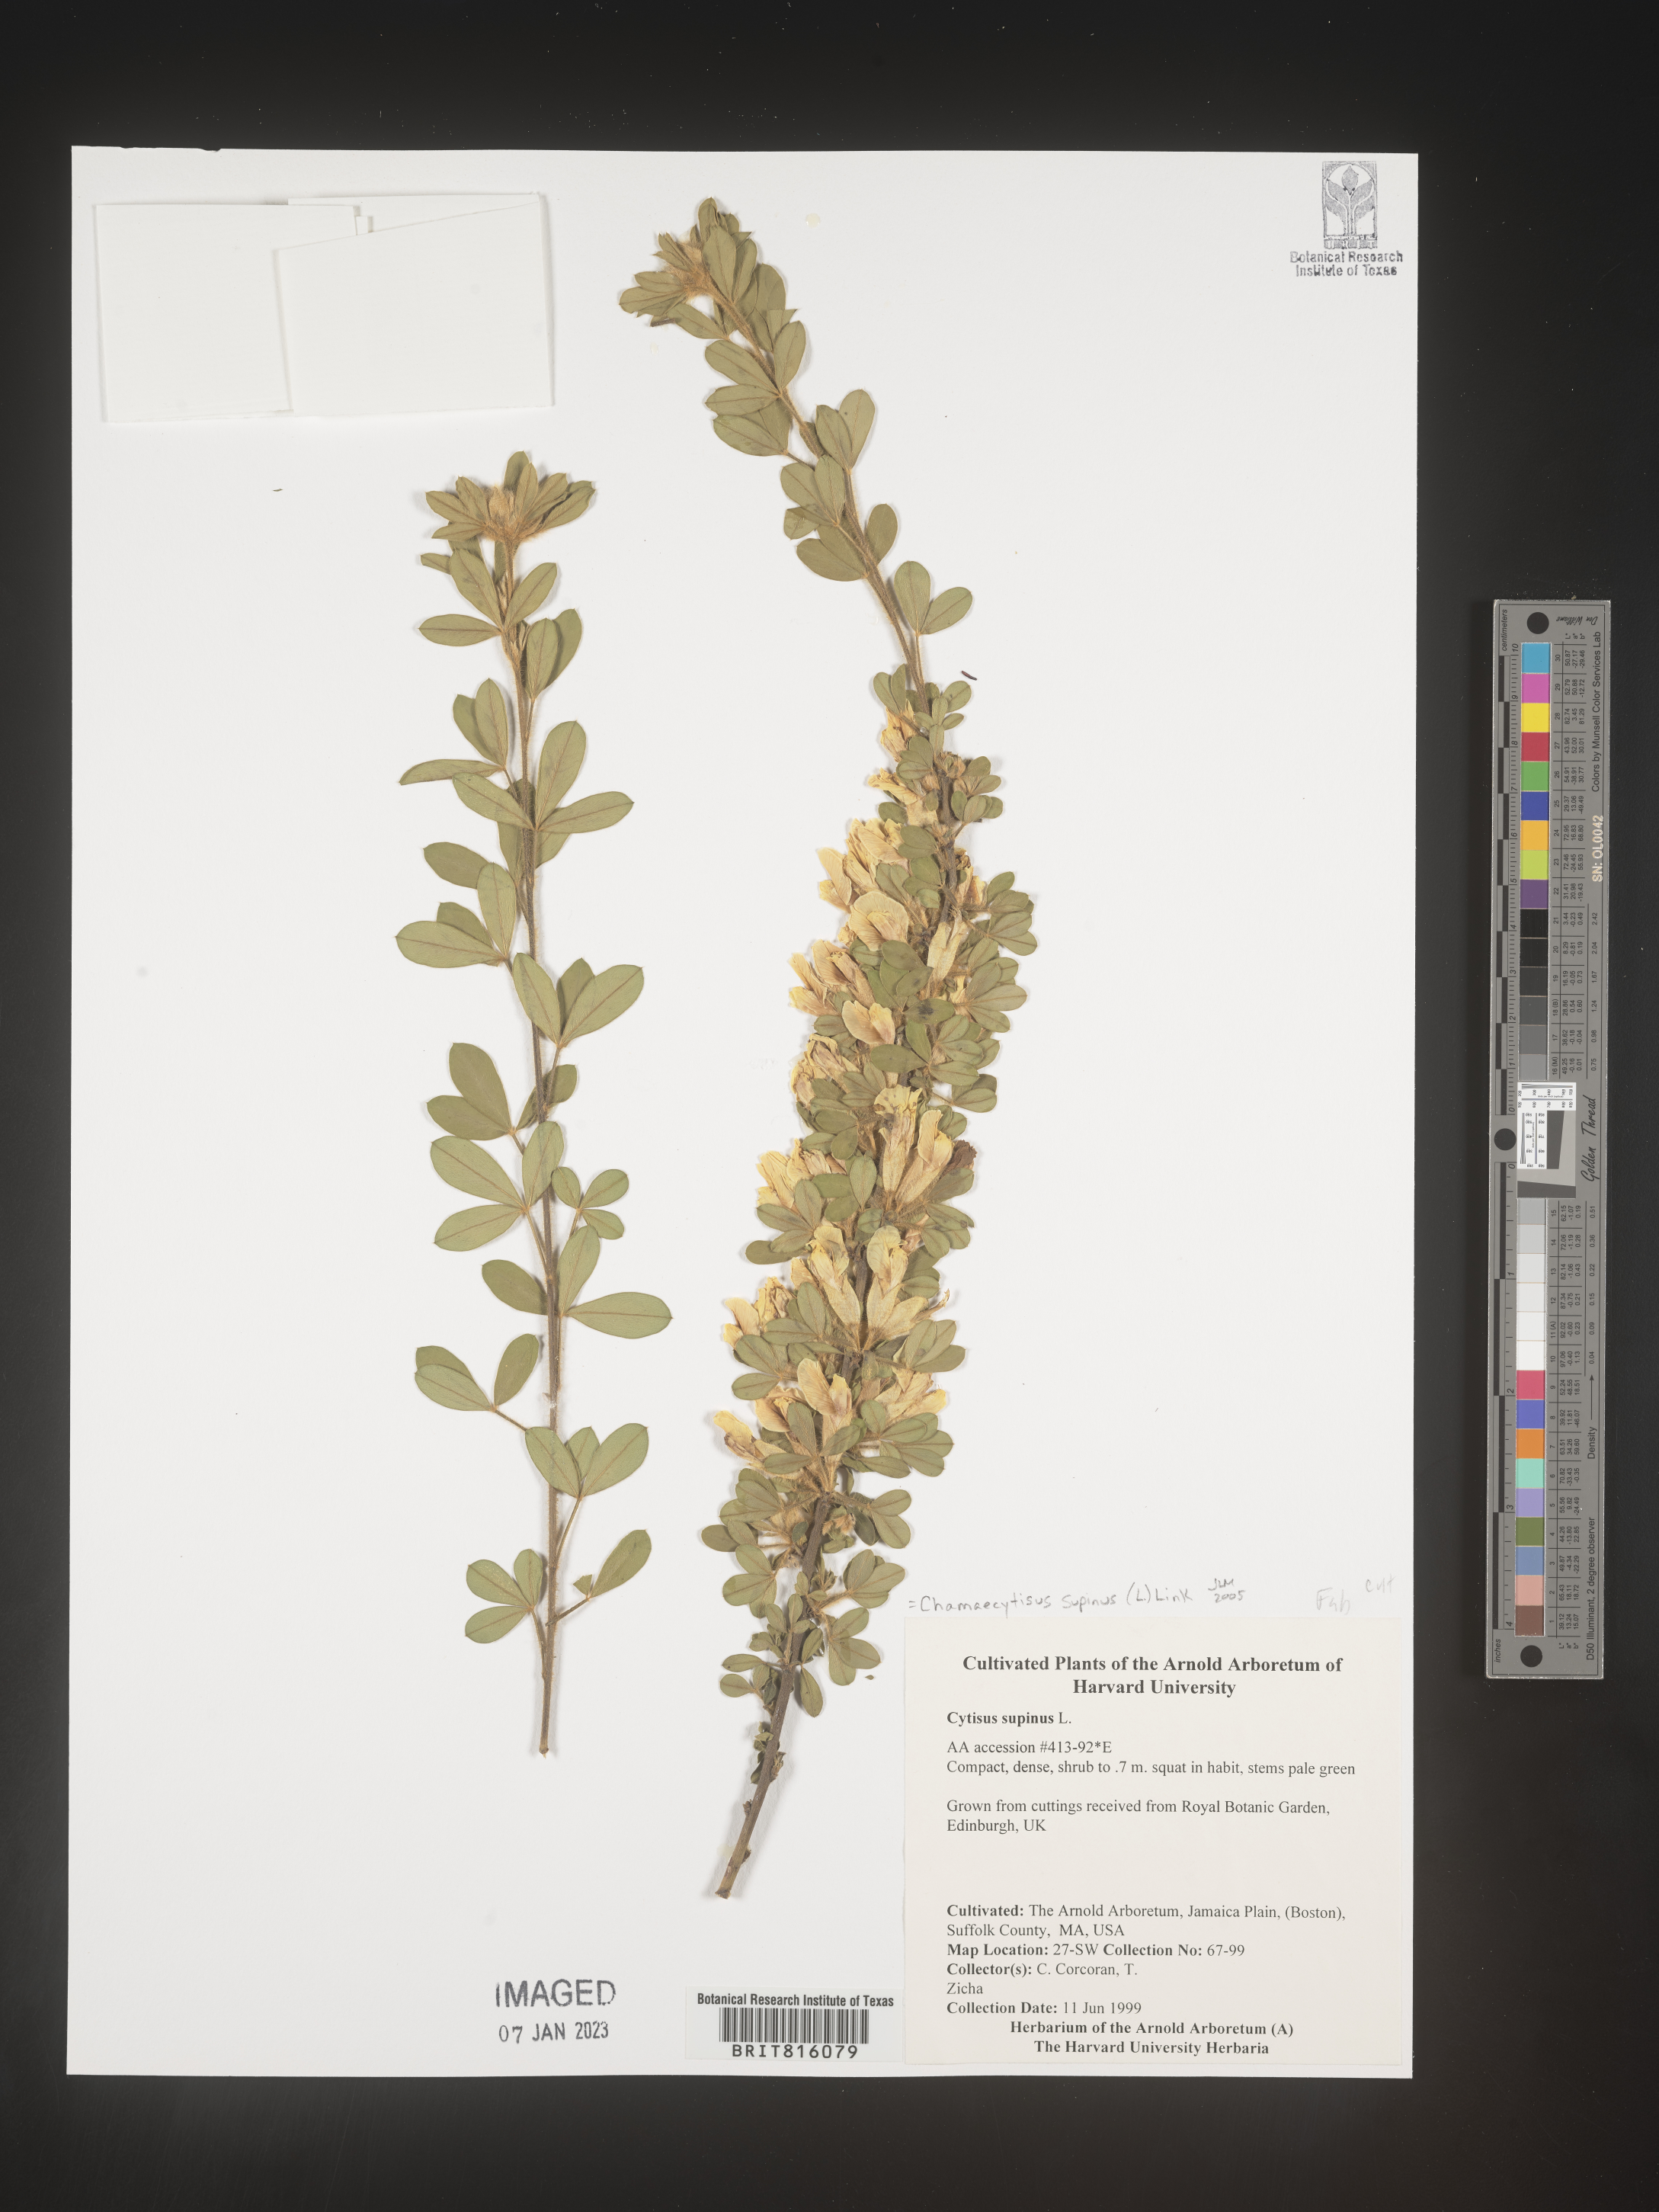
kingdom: Plantae
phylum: Tracheophyta
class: Magnoliopsida
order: Fabales
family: Fabaceae
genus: Chamaecytisus
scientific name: Chamaecytisus
